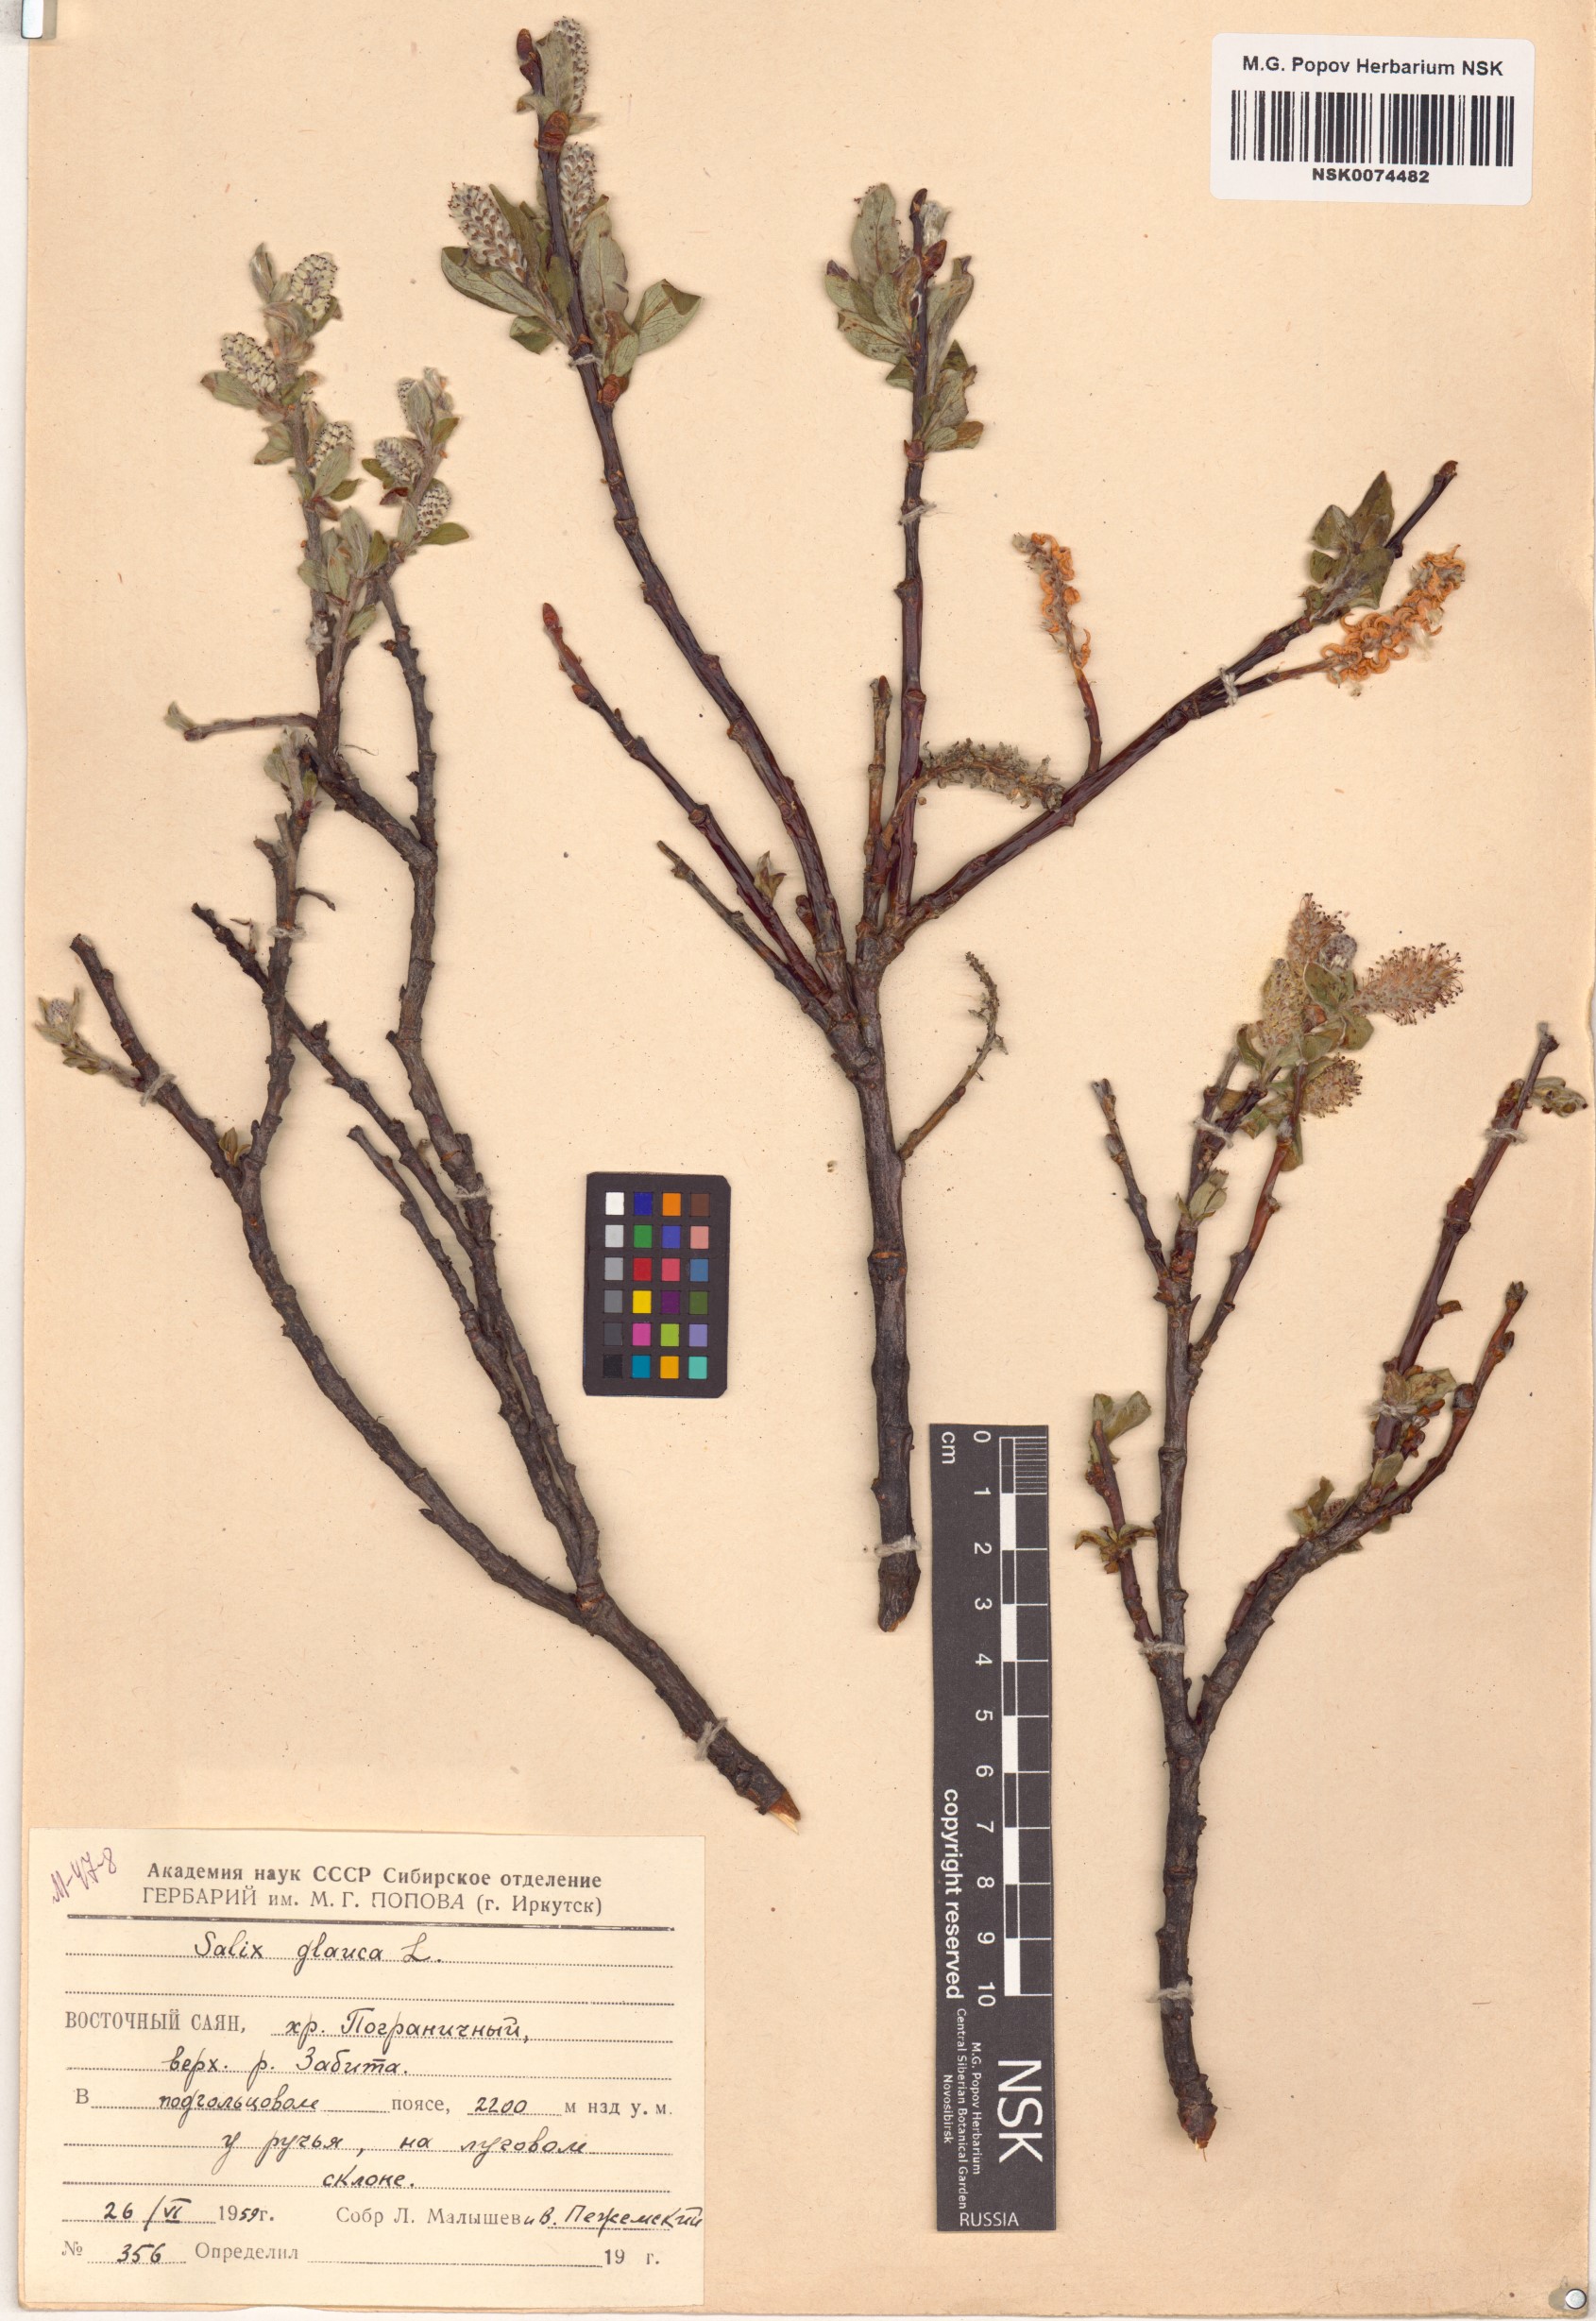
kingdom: Plantae
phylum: Tracheophyta
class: Magnoliopsida
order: Malpighiales
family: Salicaceae
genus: Salix
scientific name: Salix glauca
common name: Glaucous willow
